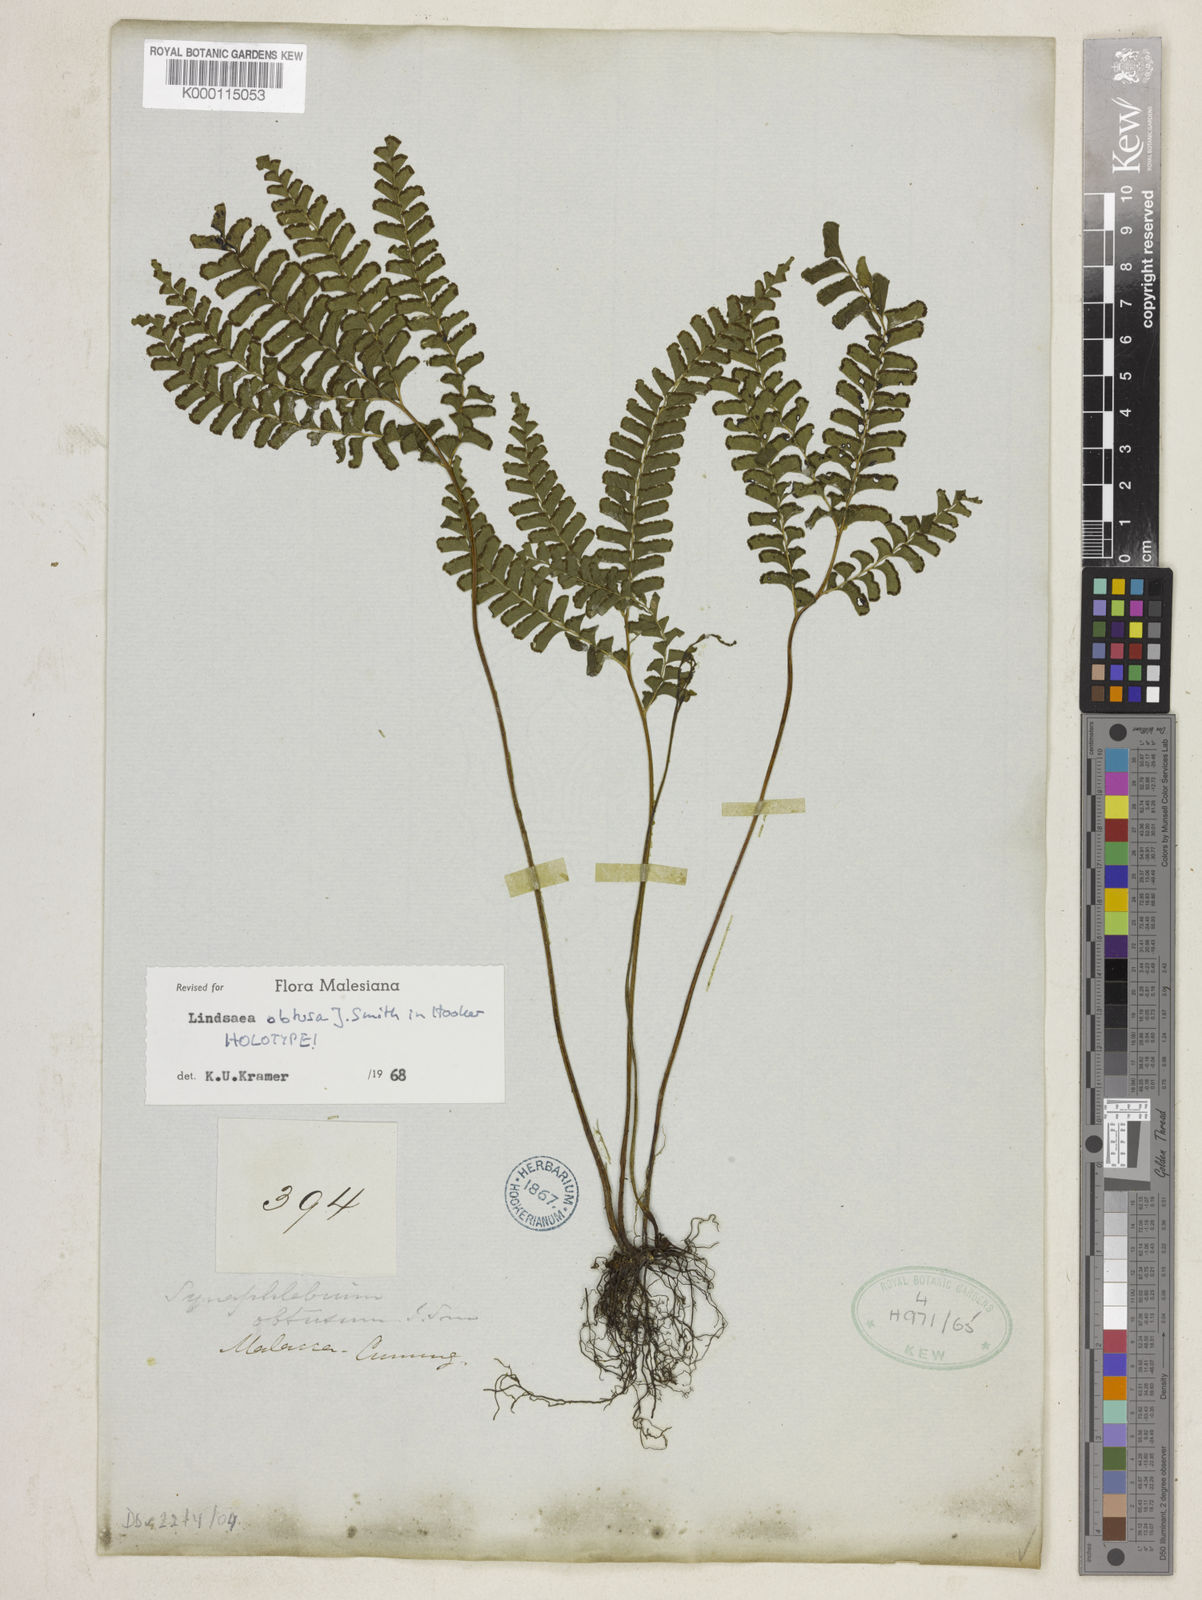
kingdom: Plantae
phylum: Tracheophyta
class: Polypodiopsida
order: Polypodiales
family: Lindsaeaceae
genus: Lindsaea
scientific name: Lindsaea cultrata
